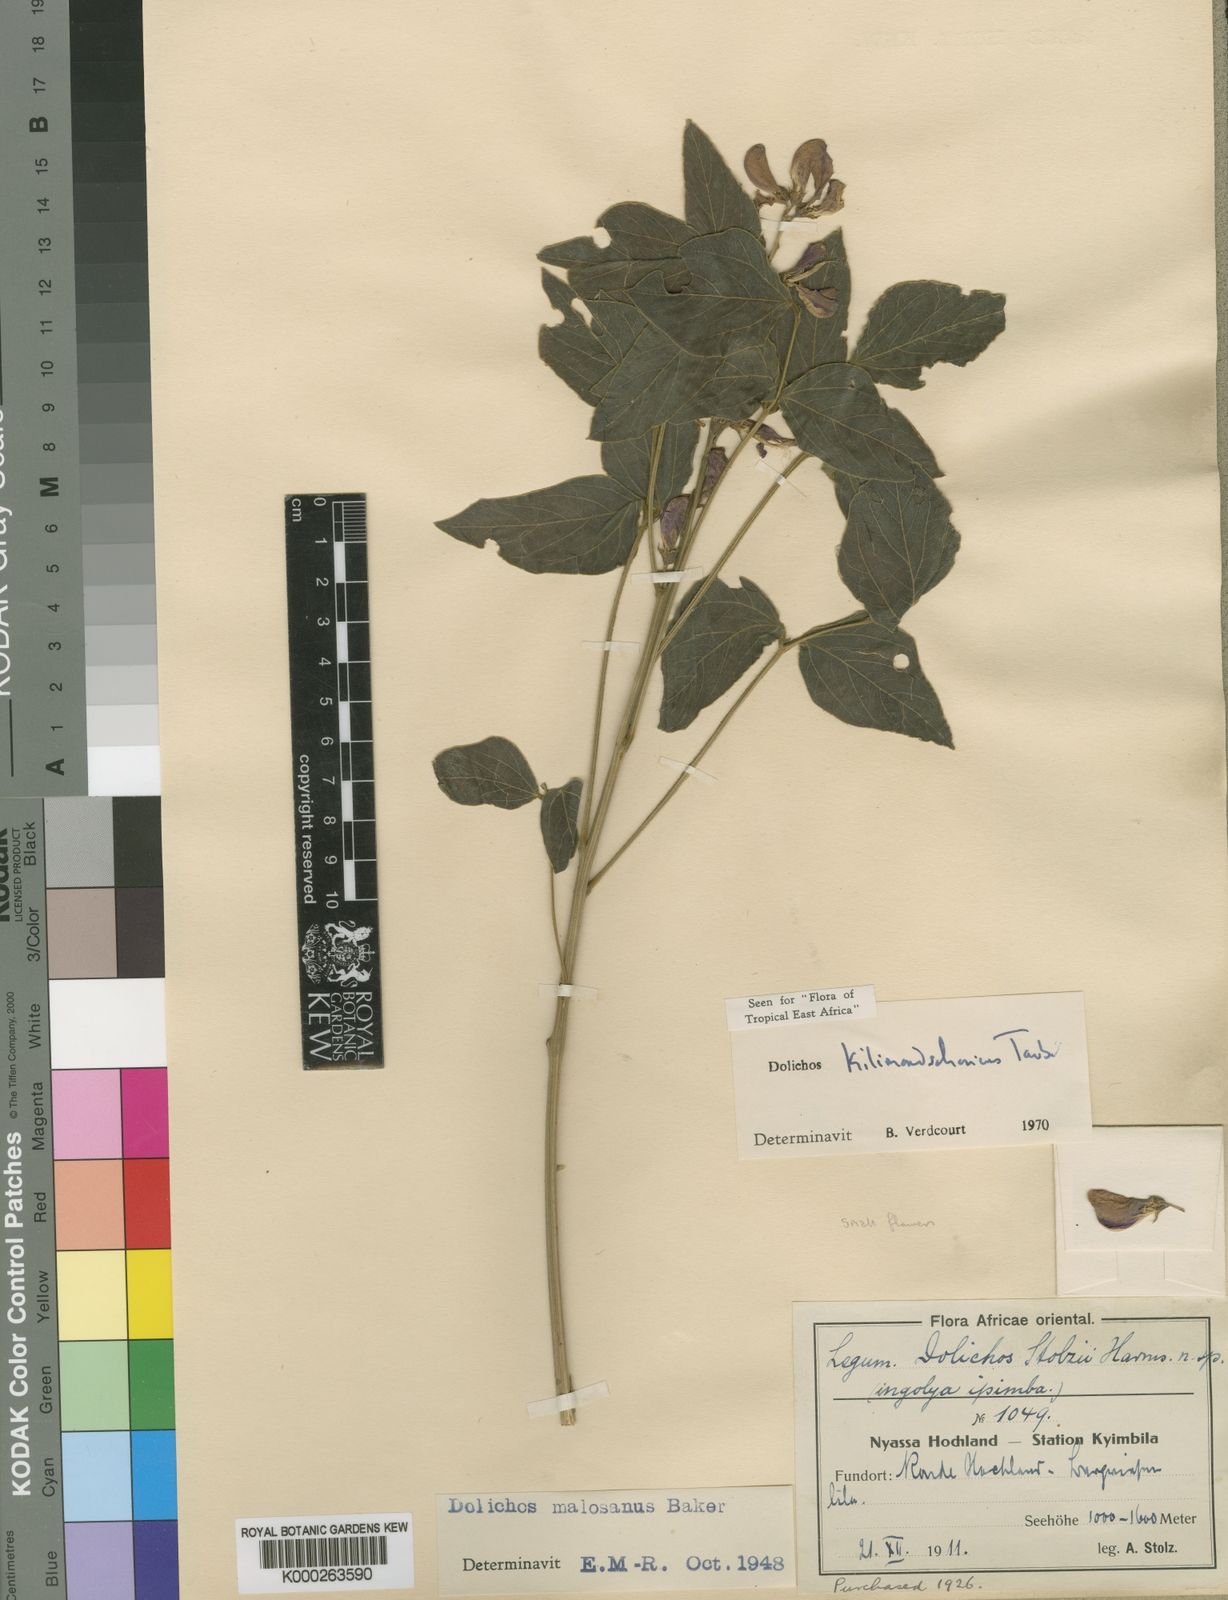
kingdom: Plantae
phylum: Tracheophyta
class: Magnoliopsida
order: Fabales
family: Fabaceae
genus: Dolichos
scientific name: Dolichos kilimandscharicus
